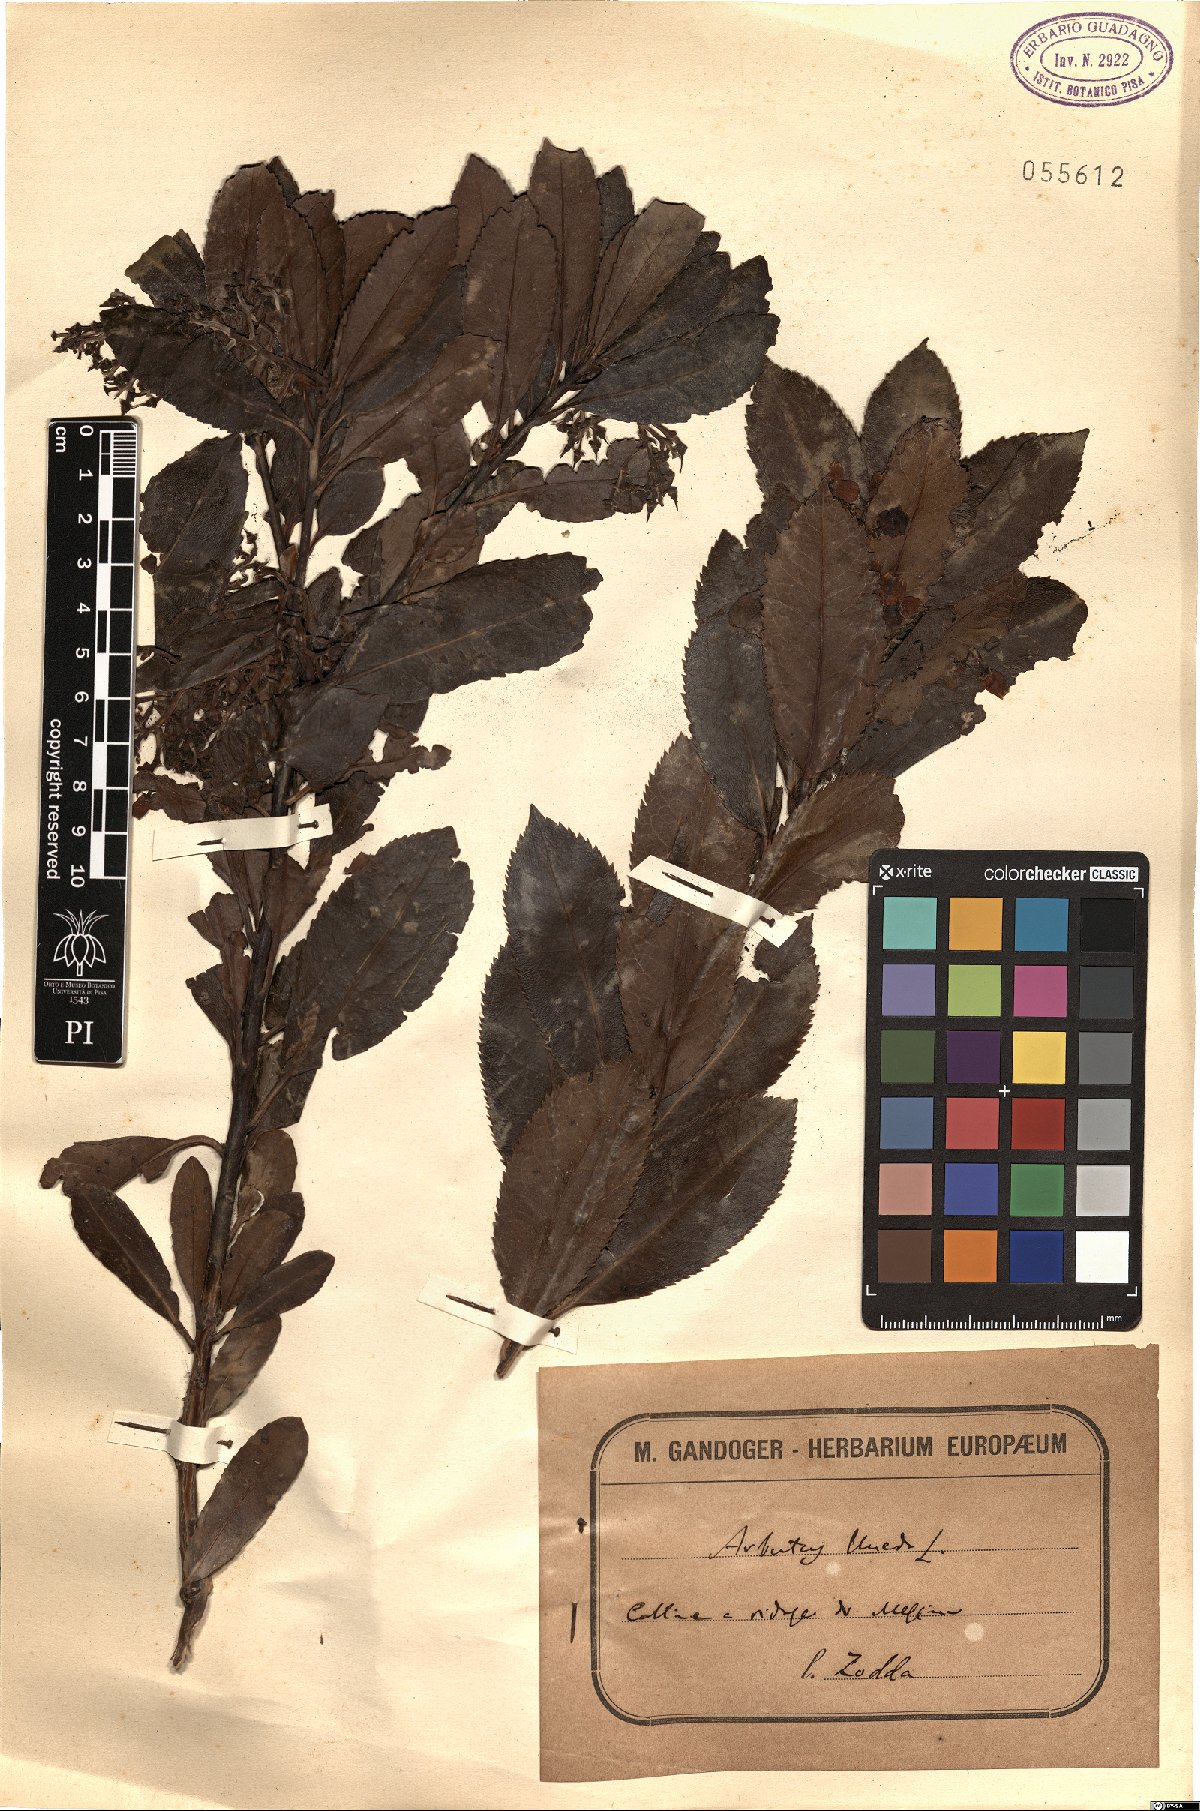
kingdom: Plantae
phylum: Tracheophyta
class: Magnoliopsida
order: Ericales
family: Ericaceae
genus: Arbutus
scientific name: Arbutus unedo
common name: Strawberry-tree
